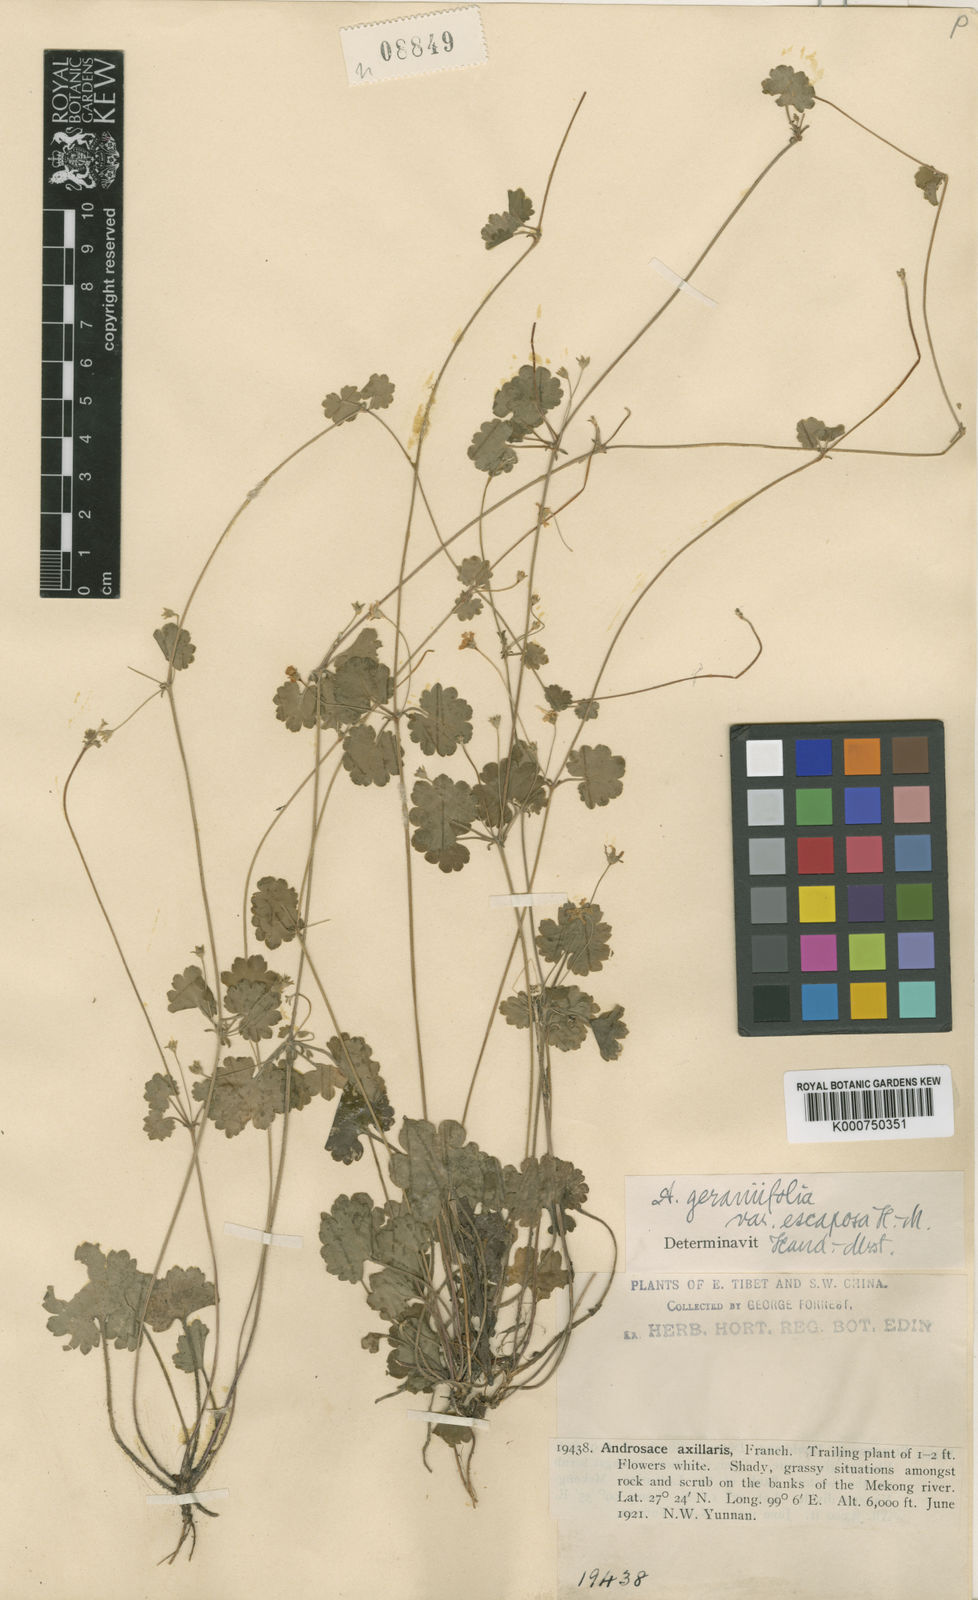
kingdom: Plantae
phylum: Tracheophyta
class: Magnoliopsida
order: Ericales
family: Primulaceae
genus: Androsace
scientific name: Androsace geraniifolia
